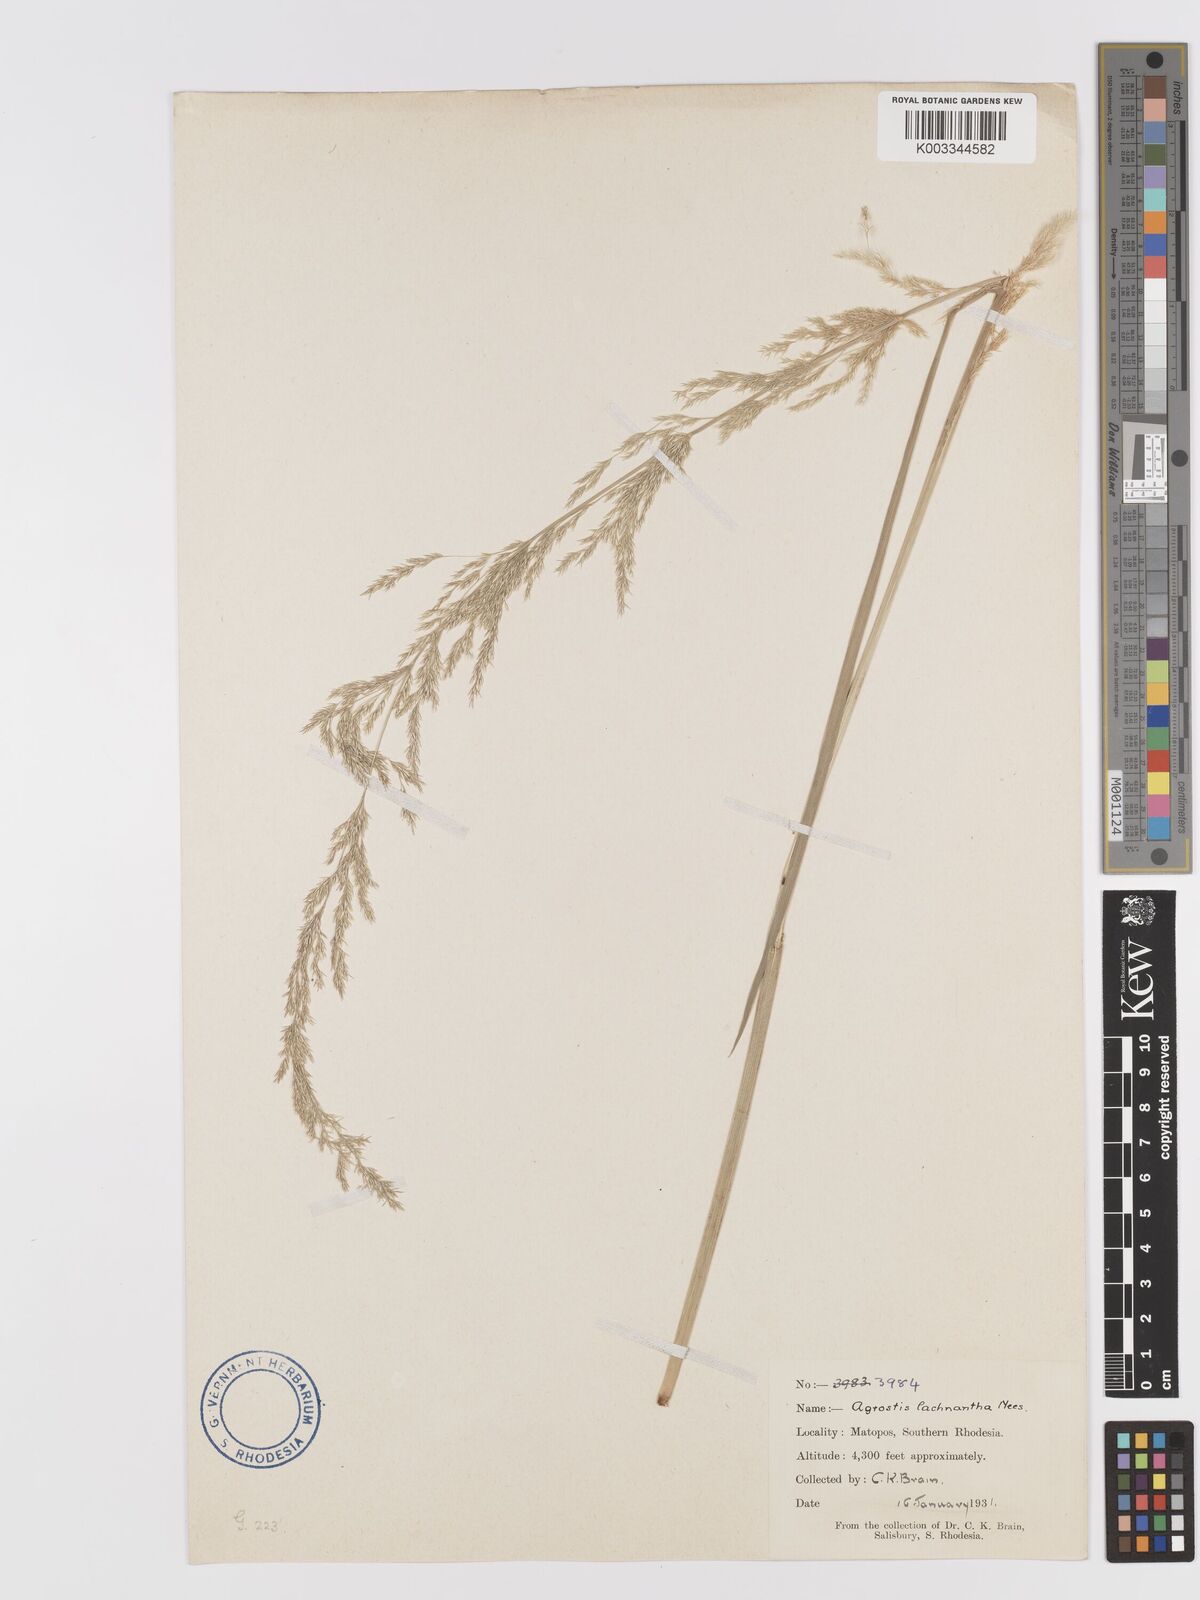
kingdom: Plantae
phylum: Tracheophyta
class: Liliopsida
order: Poales
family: Poaceae
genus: Lachnagrostis
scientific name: Lachnagrostis lachnantha
